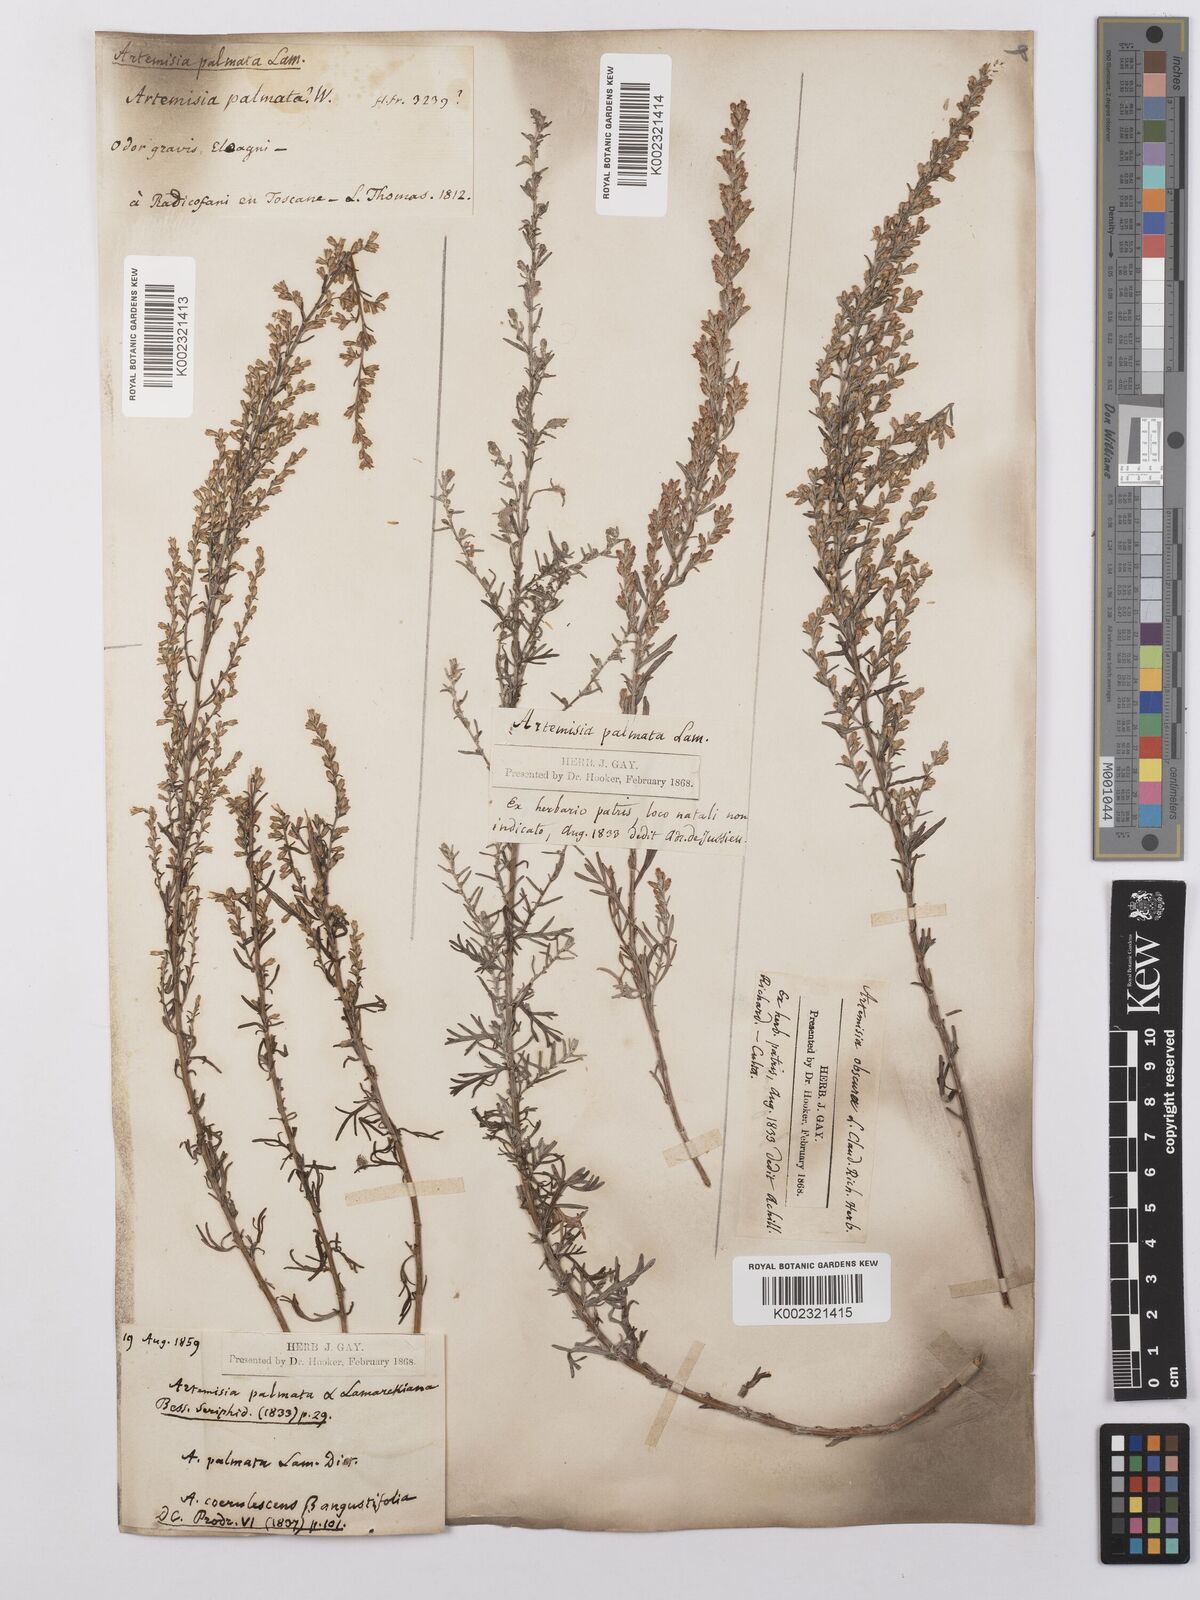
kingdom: Plantae
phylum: Tracheophyta
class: Magnoliopsida
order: Asterales
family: Asteraceae
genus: Artemisia
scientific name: Artemisia caerulescens
